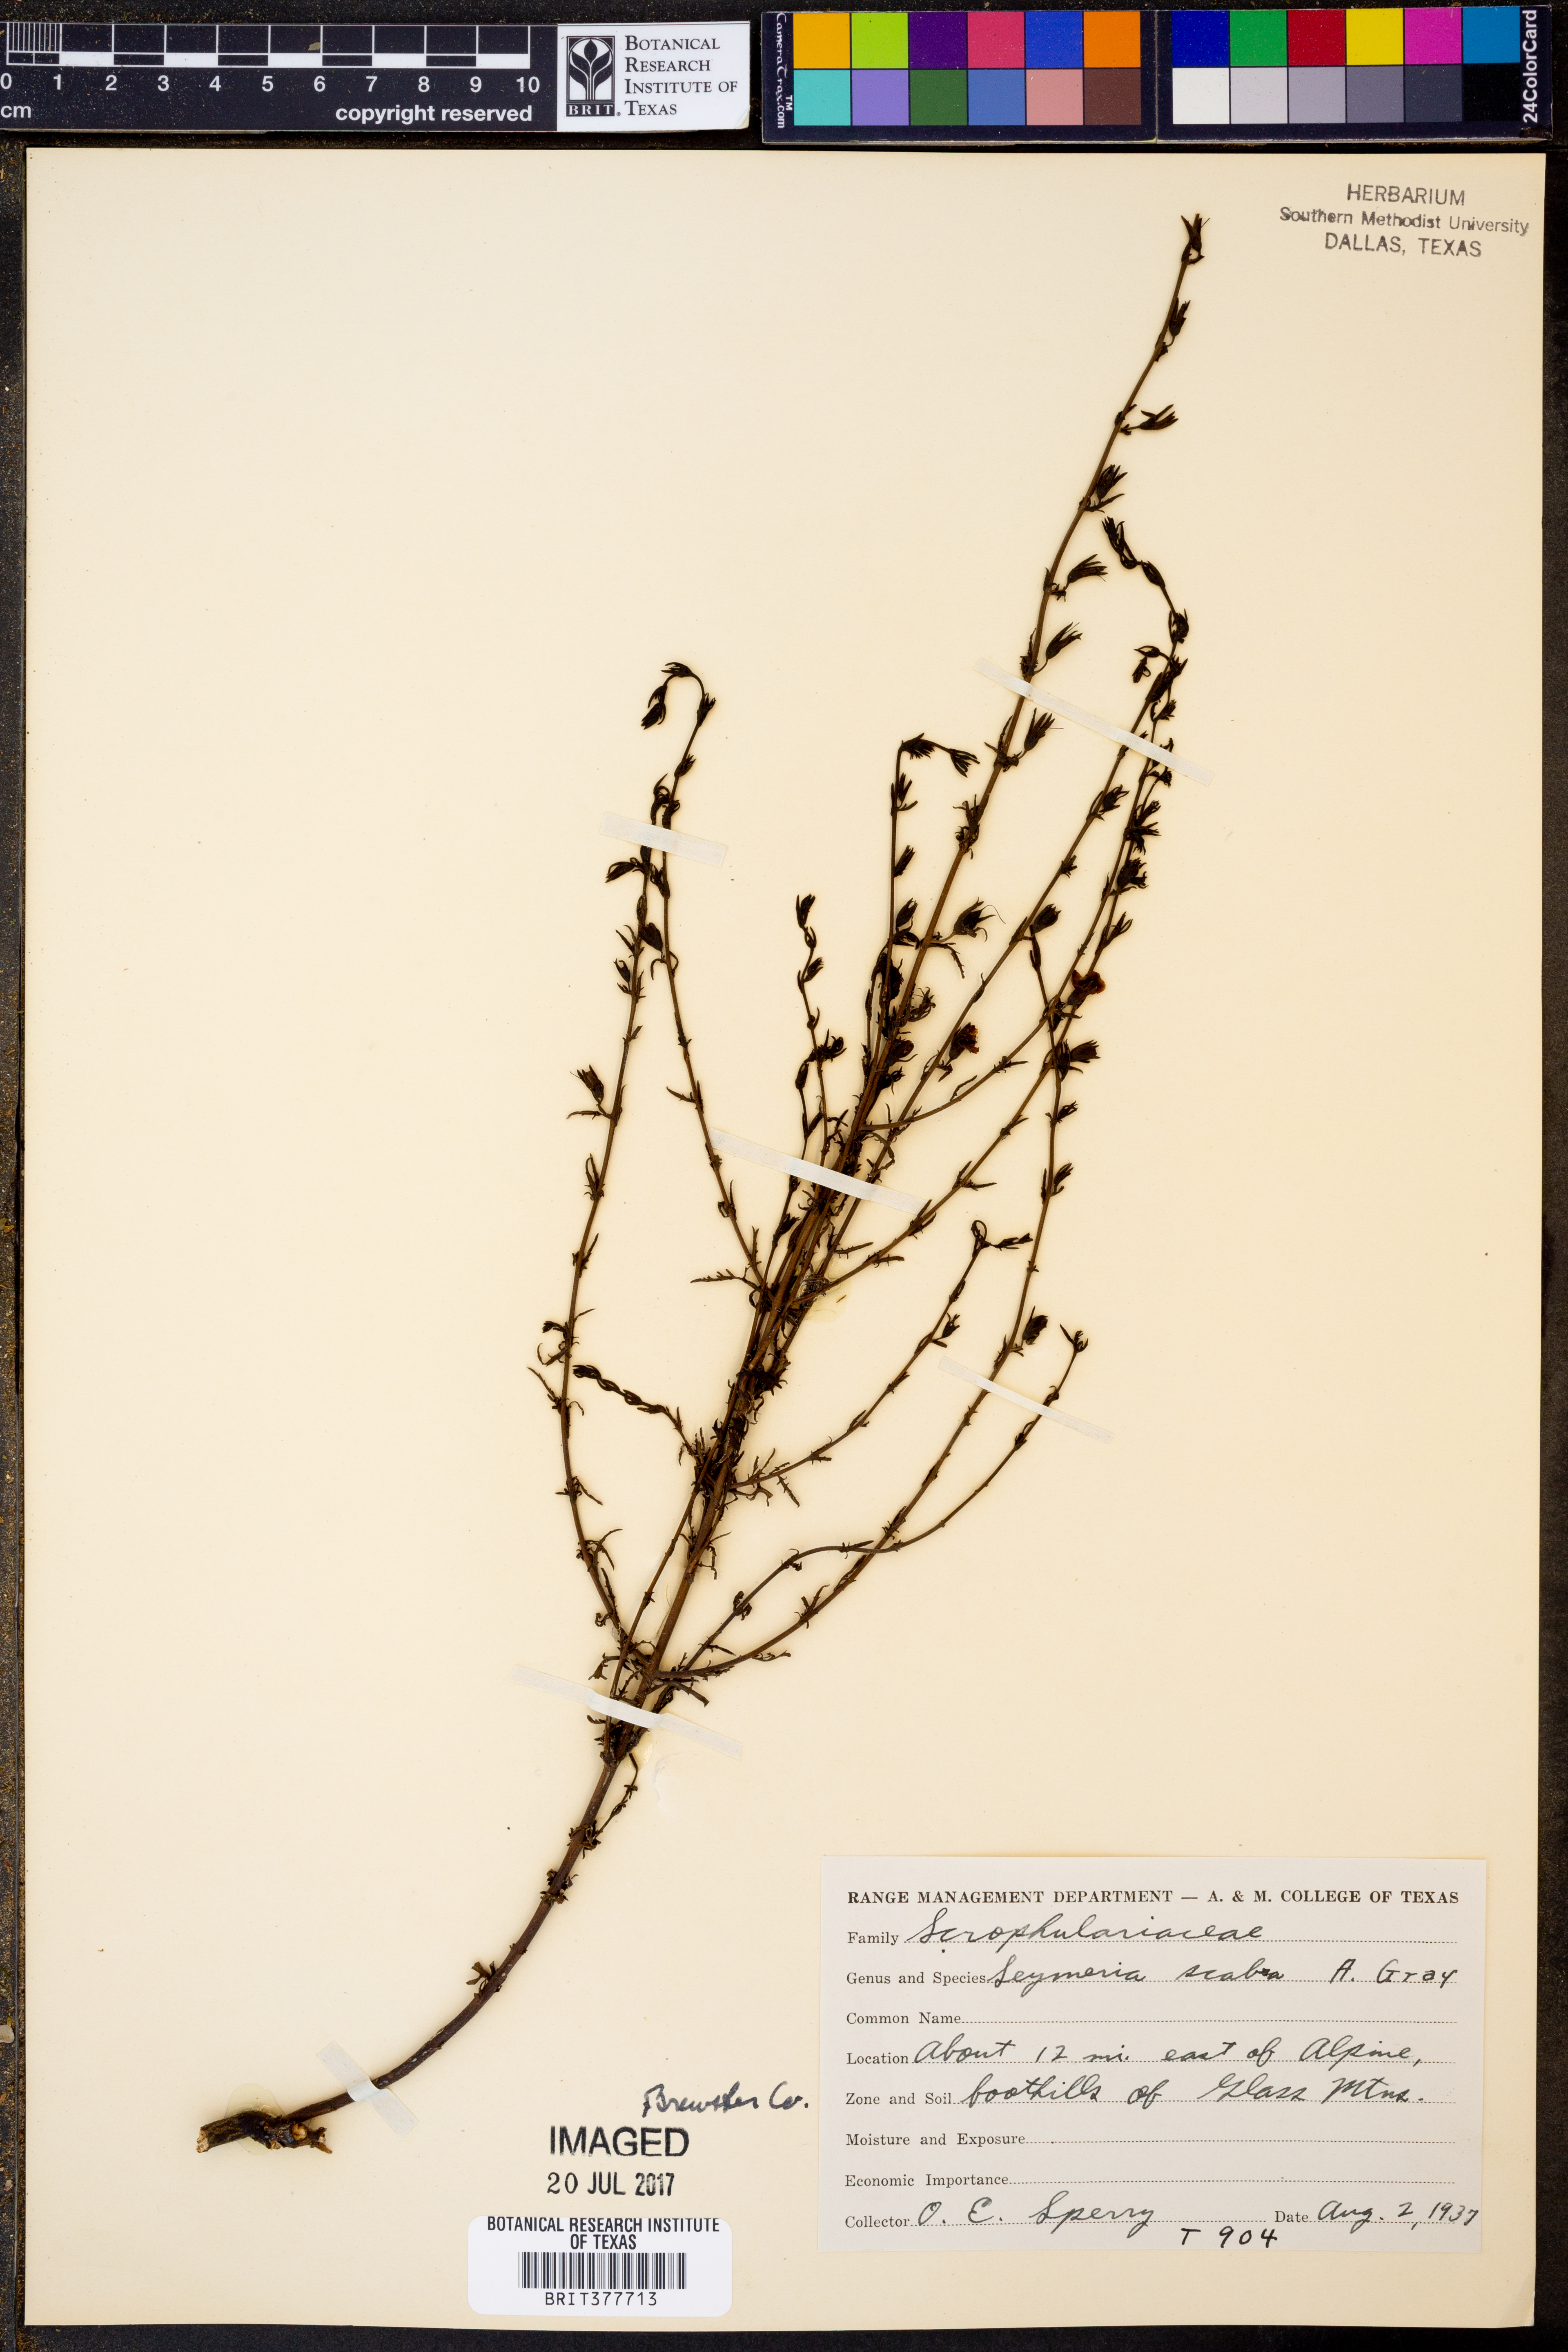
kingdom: Plantae
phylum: Tracheophyta
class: Magnoliopsida
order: Lamiales
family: Orobanchaceae
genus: Seymeria
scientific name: Seymeria scabra
